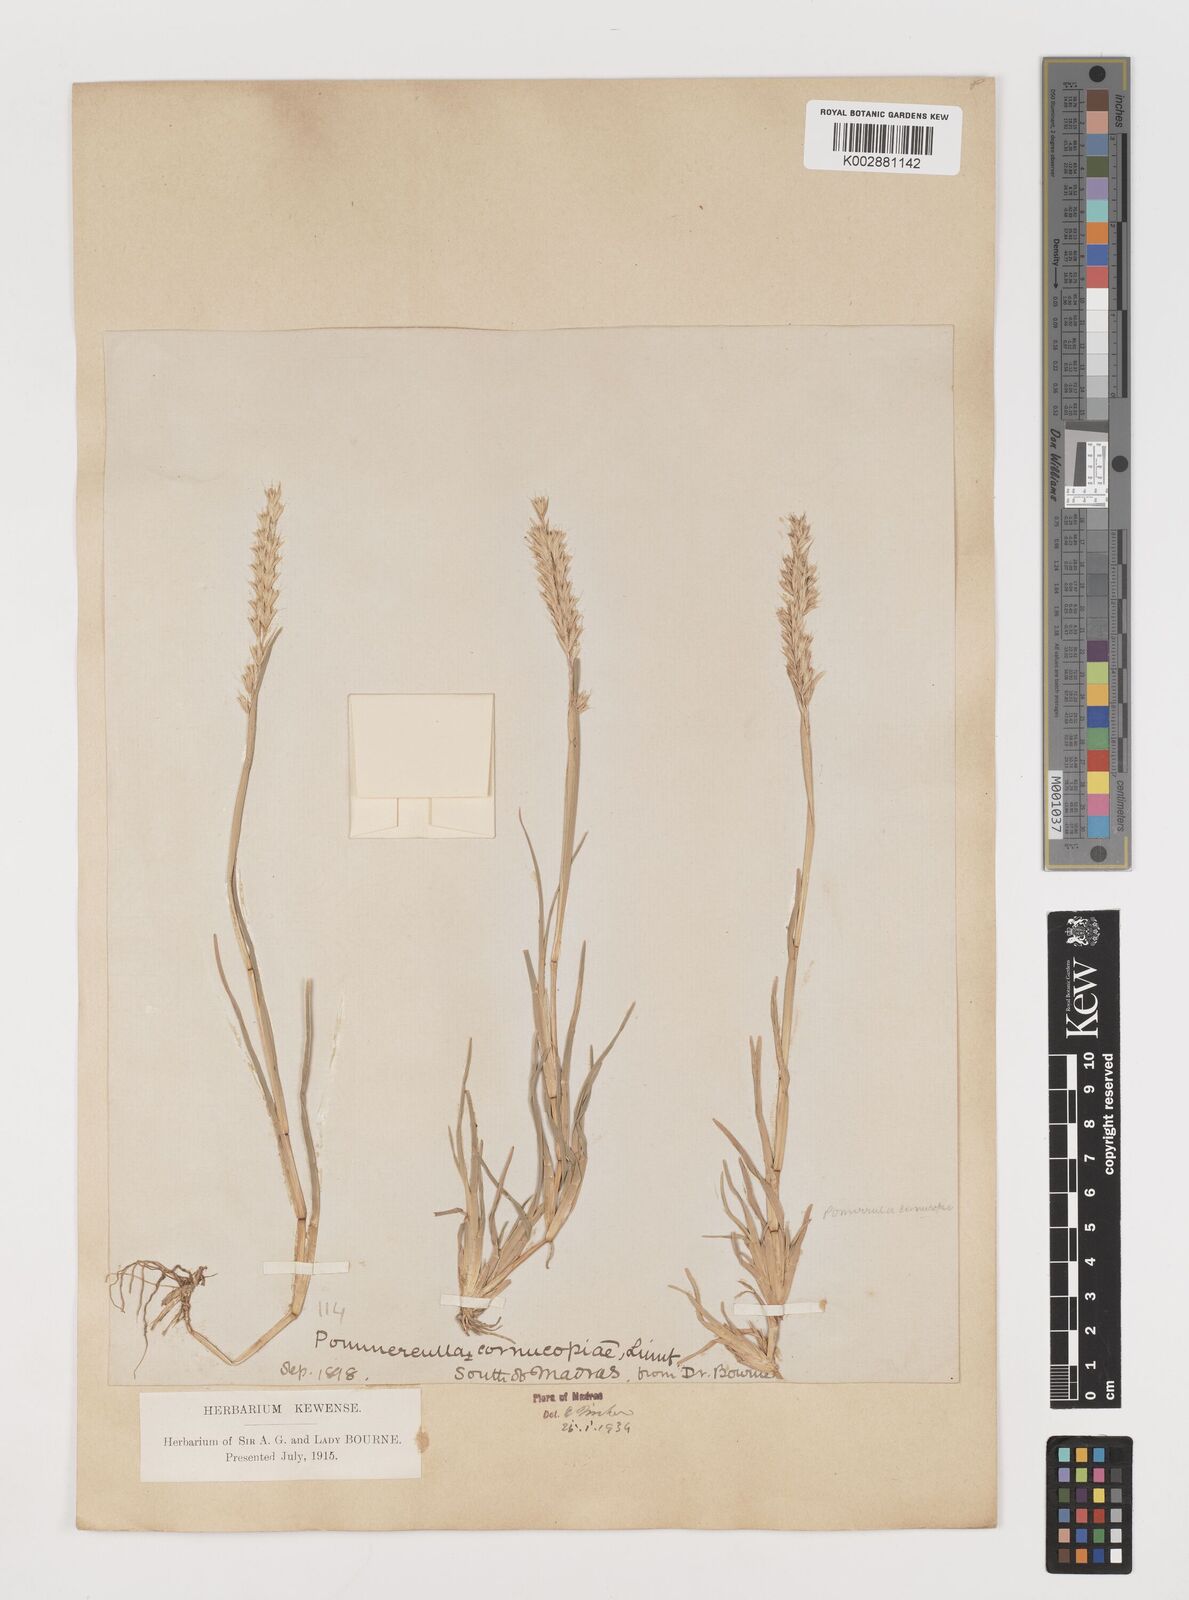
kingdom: Plantae
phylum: Tracheophyta
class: Liliopsida
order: Poales
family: Poaceae
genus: Pommereulla
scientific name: Pommereulla cornucopiae
